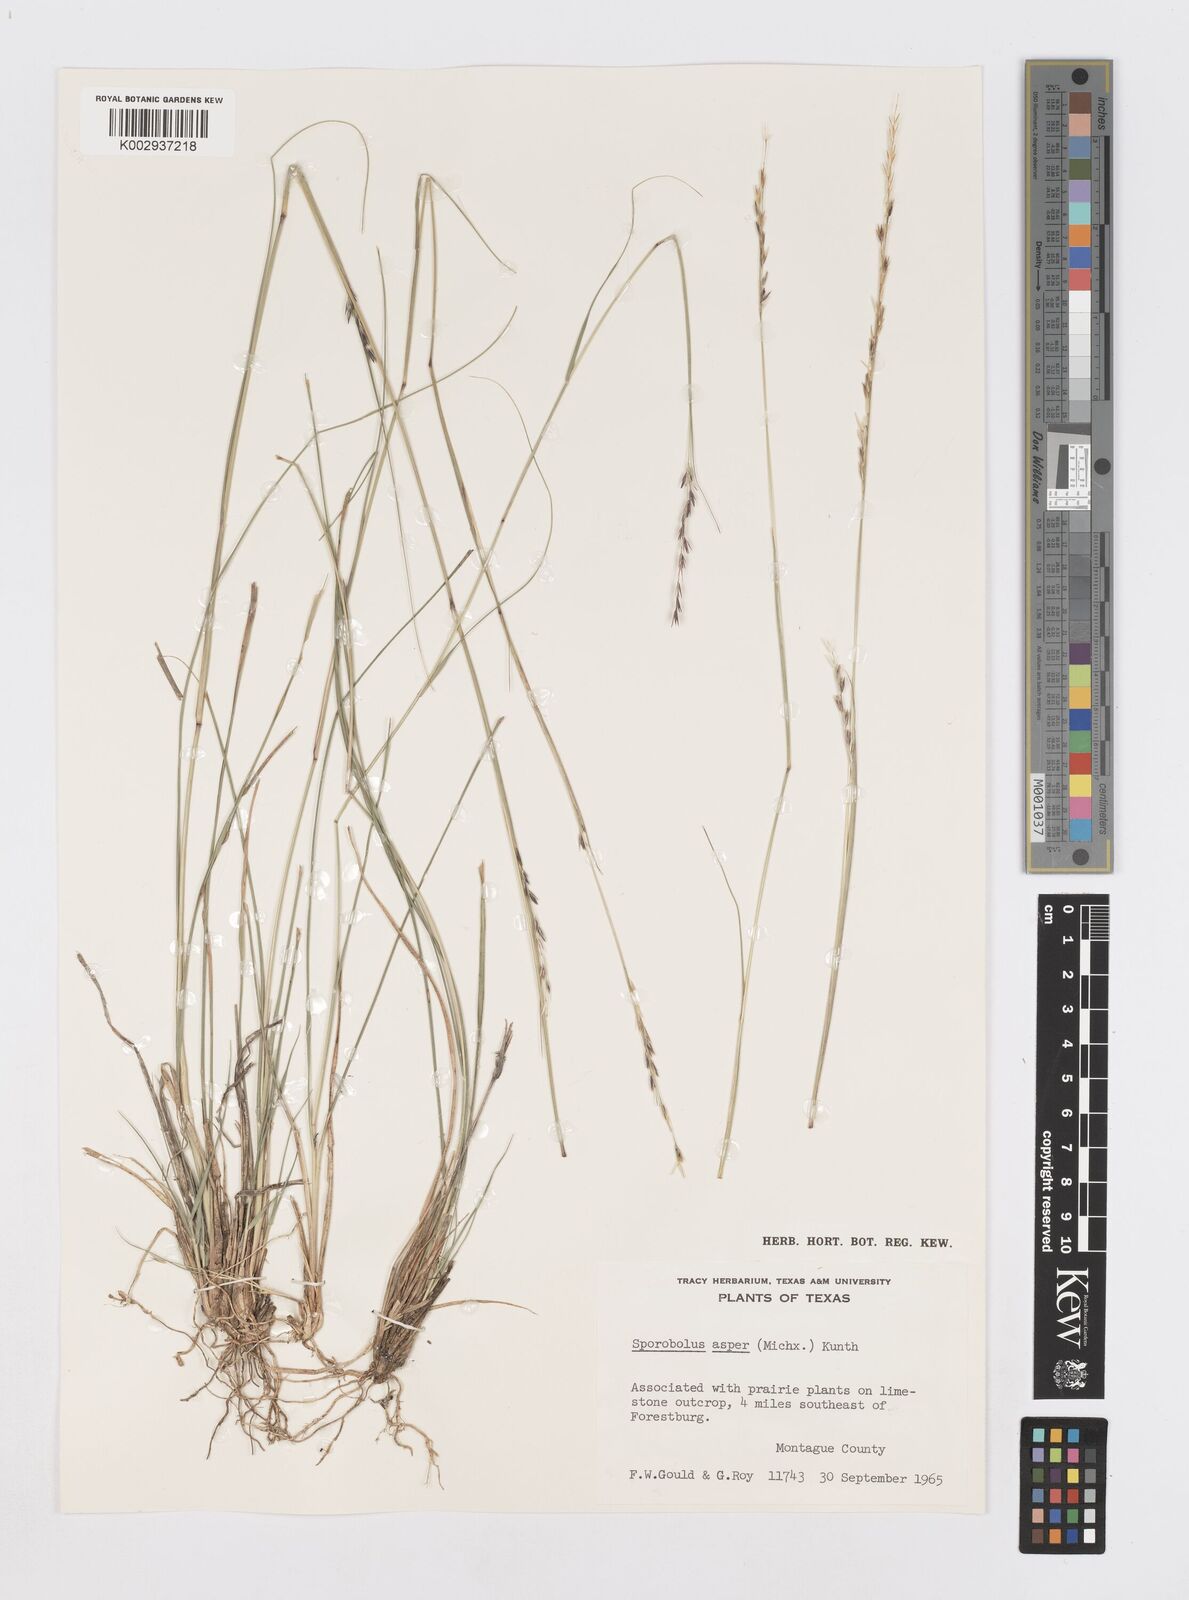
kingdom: Plantae
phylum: Tracheophyta
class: Liliopsida
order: Poales
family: Poaceae
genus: Sporobolus
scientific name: Sporobolus compositus
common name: Rough dropseed
